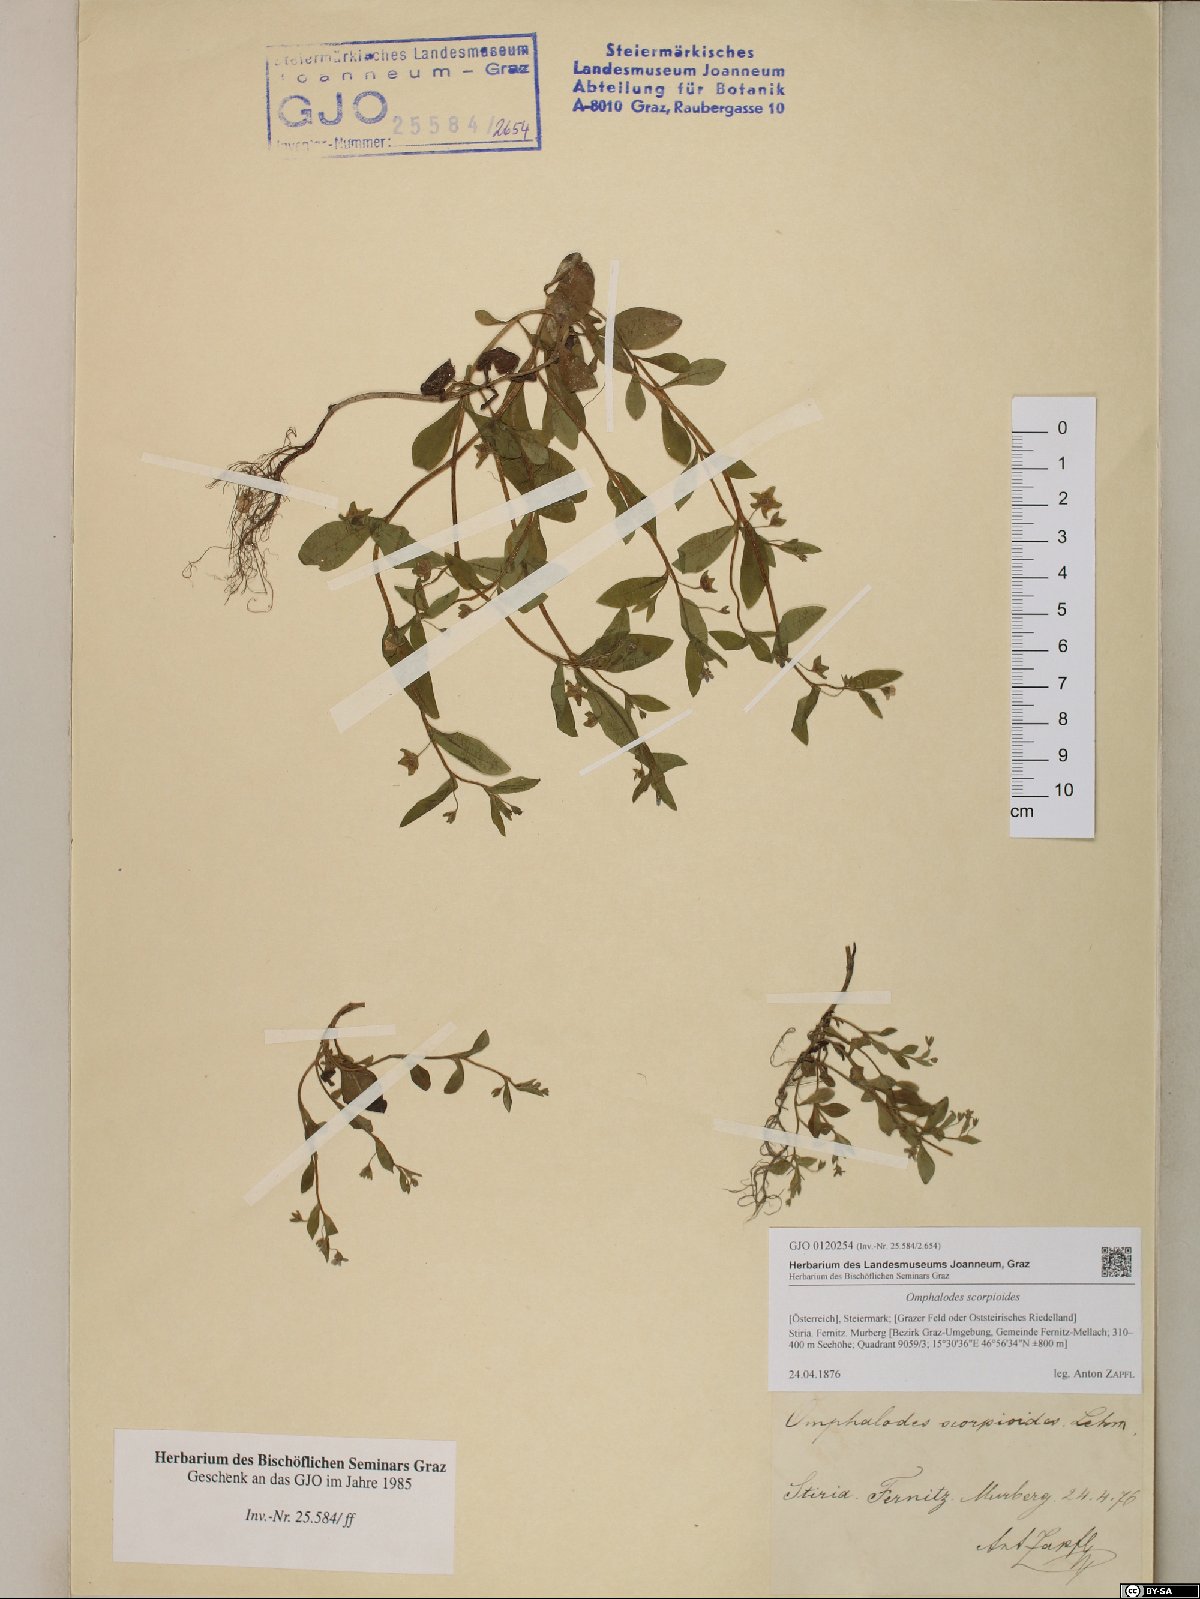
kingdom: Plantae
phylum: Tracheophyta
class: Magnoliopsida
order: Boraginales
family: Boraginaceae
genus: Memoremea
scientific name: Memoremea scorpioides
